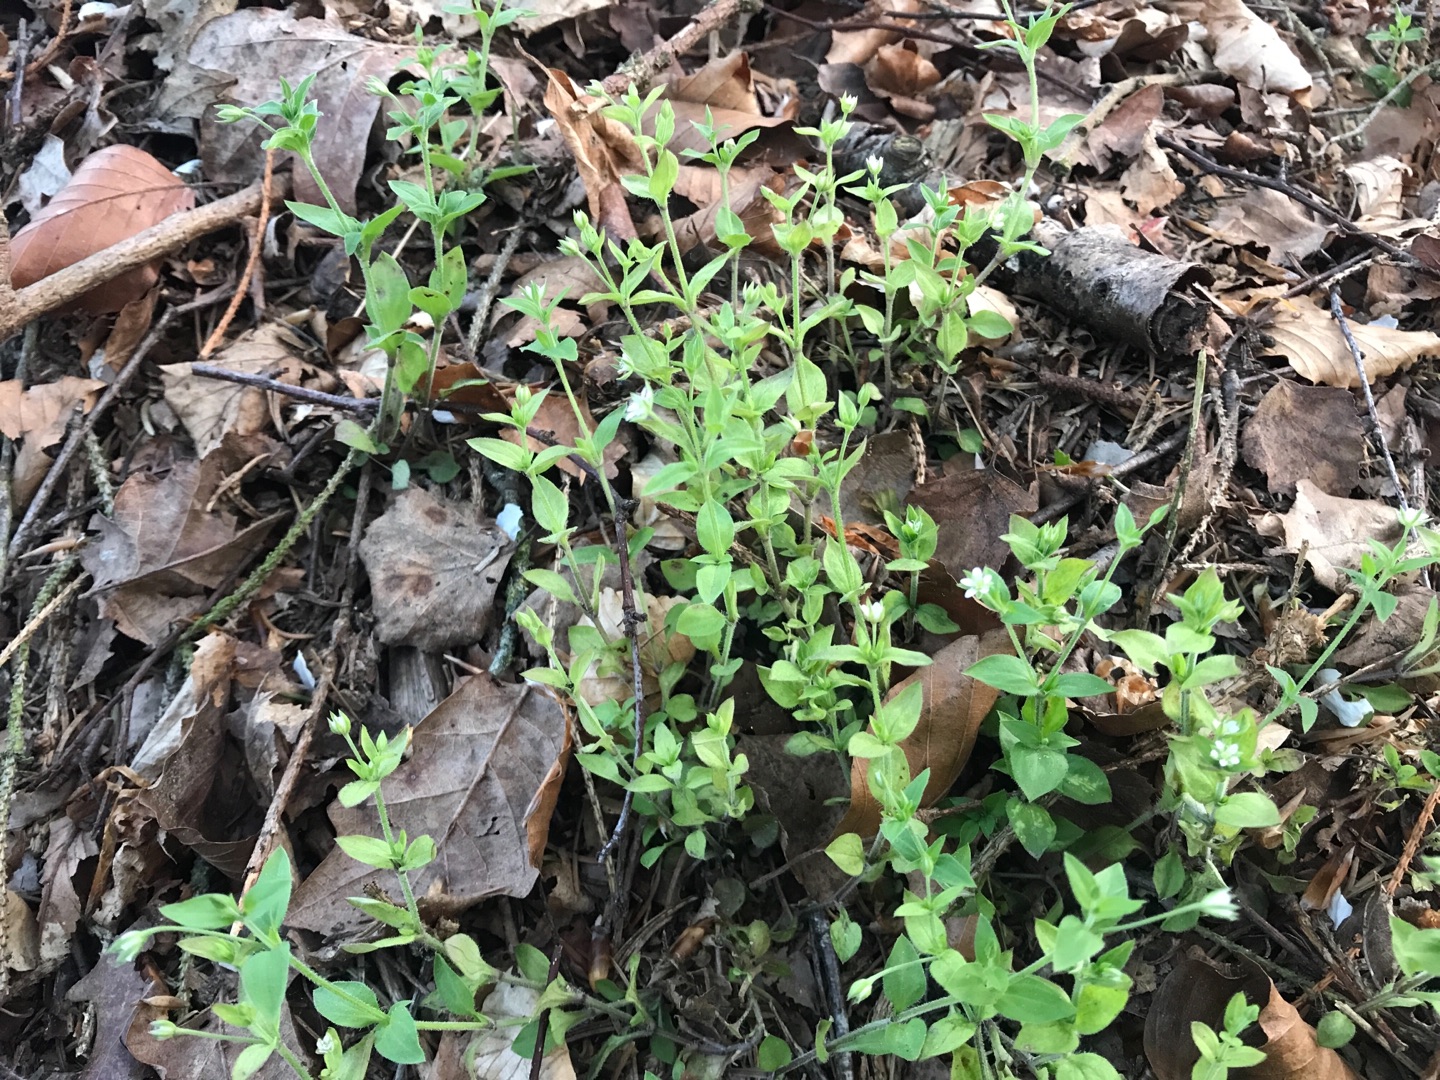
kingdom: Plantae
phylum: Tracheophyta
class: Magnoliopsida
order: Caryophyllales
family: Caryophyllaceae
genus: Moehringia
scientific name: Moehringia trinervia
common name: Skovarve
